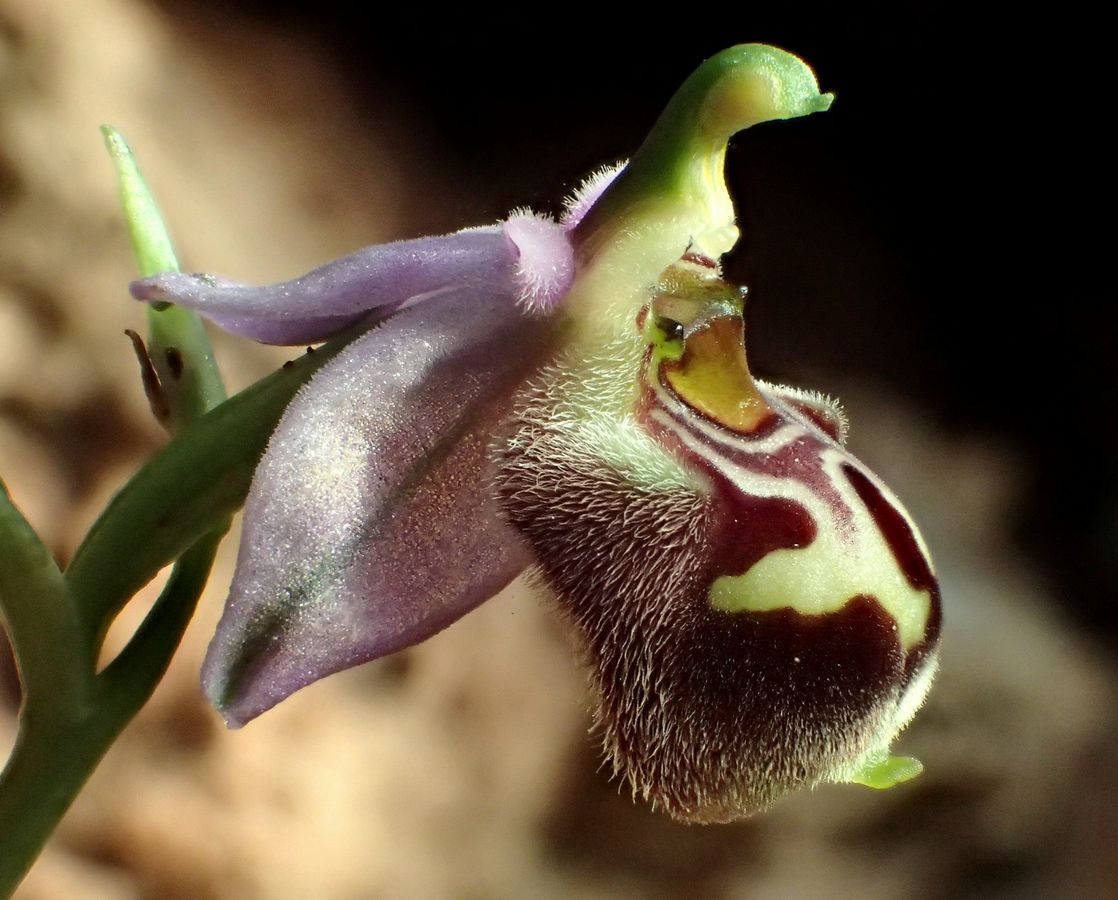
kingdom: Plantae
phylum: Tracheophyta
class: Liliopsida
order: Asparagales
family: Orchidaceae
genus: Ophrys
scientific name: Ophrys bornmuelleri
